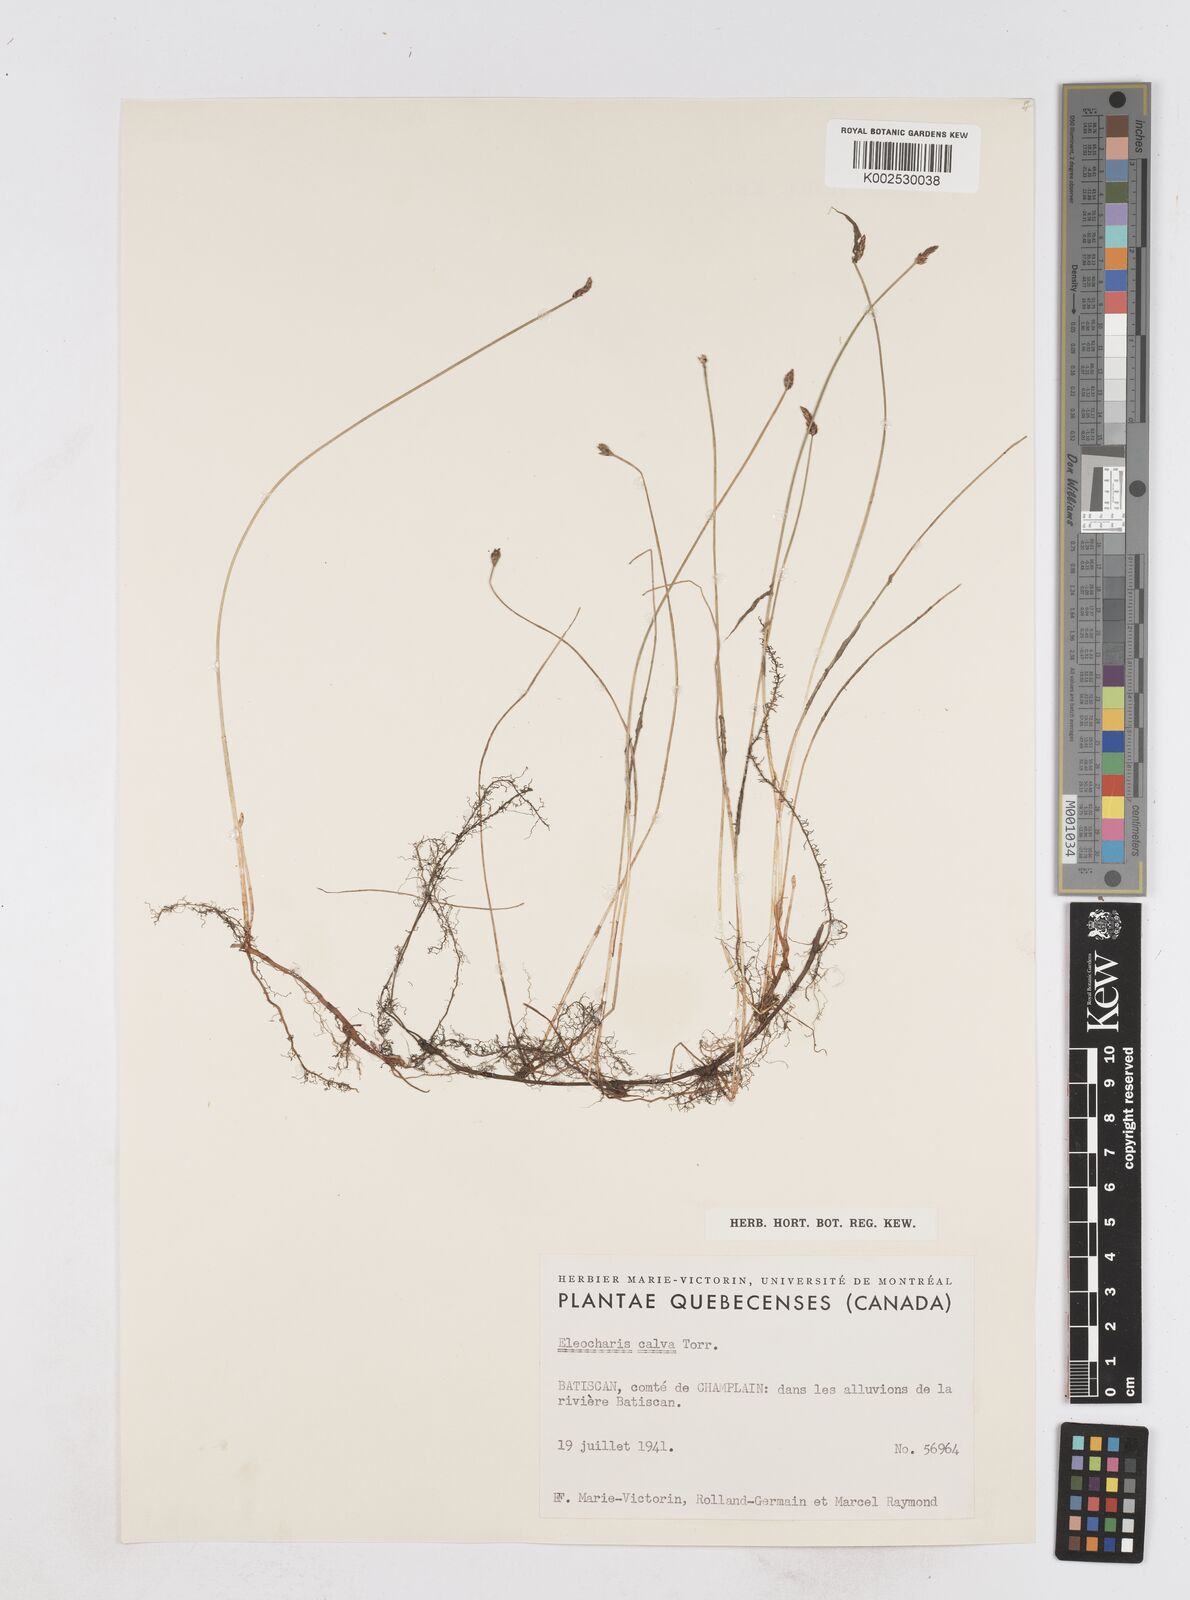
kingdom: Plantae
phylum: Tracheophyta
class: Liliopsida
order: Poales
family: Cyperaceae
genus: Eleocharis
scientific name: Eleocharis palustris
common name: Common spike-rush
